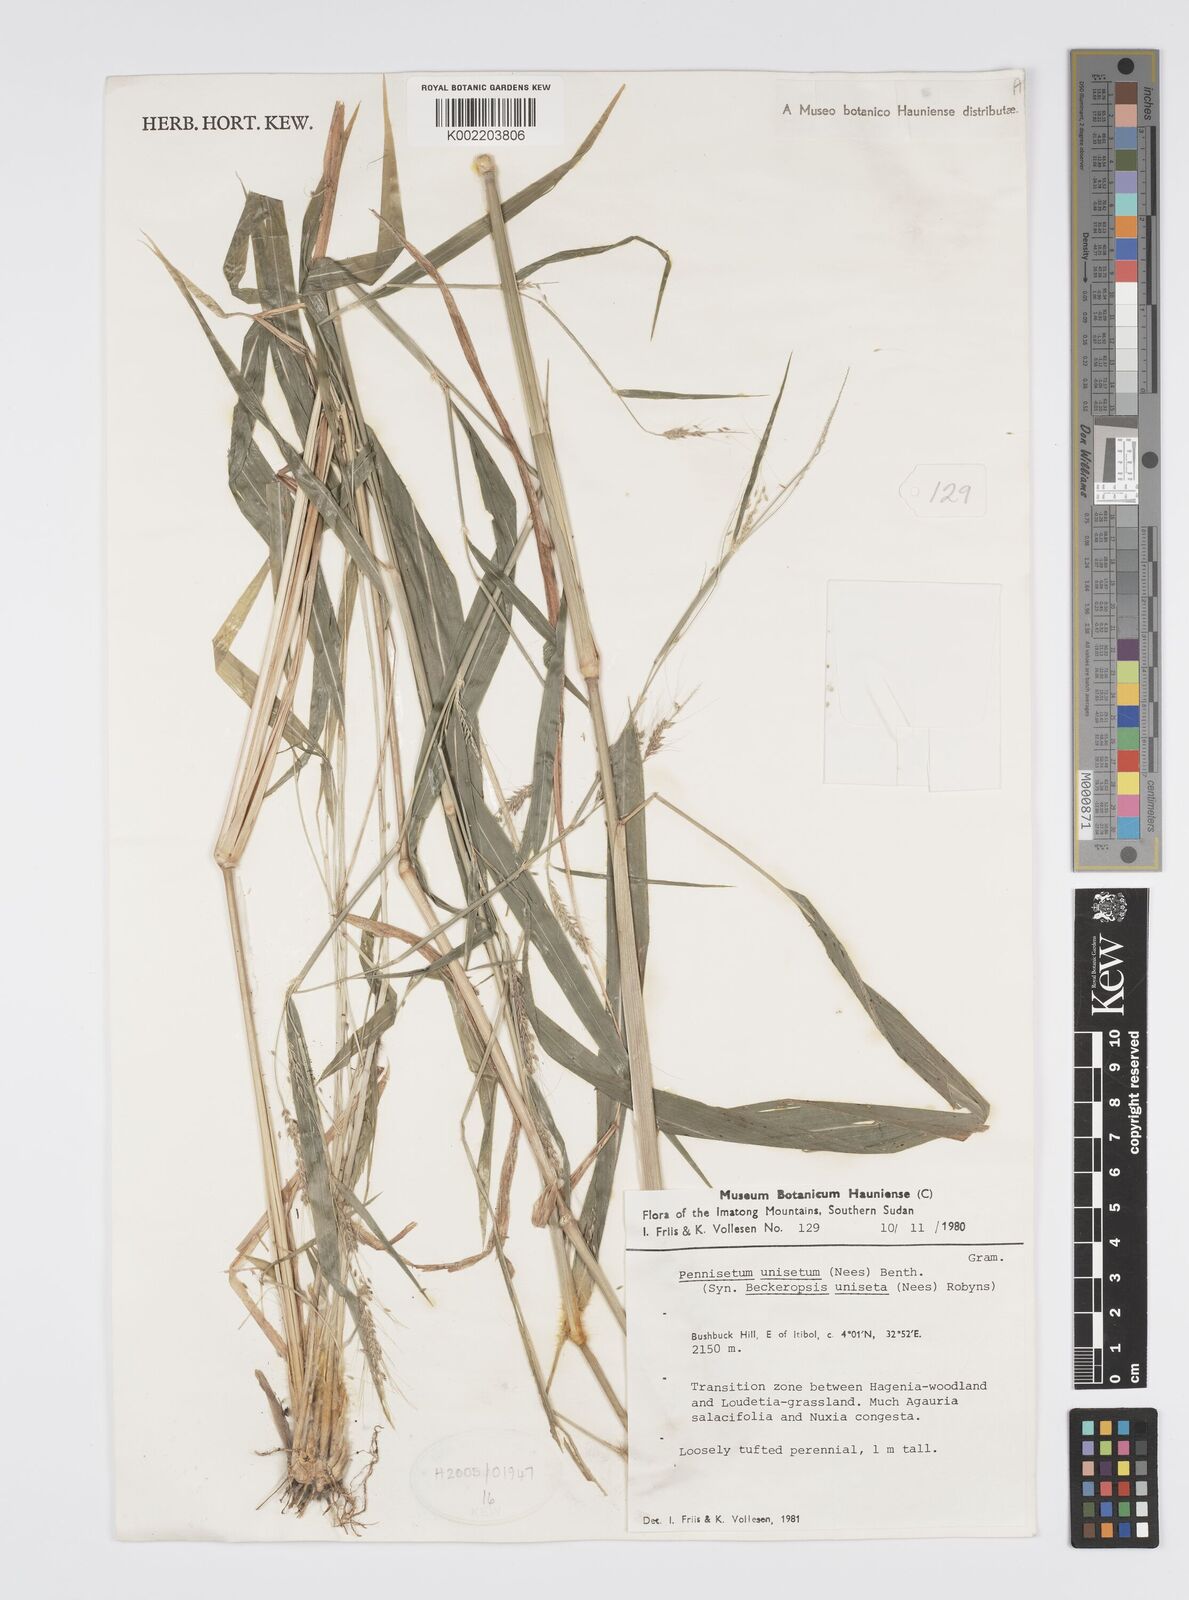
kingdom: Plantae
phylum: Tracheophyta
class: Liliopsida
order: Poales
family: Poaceae
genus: Cenchrus
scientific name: Cenchrus unisetus
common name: Natal grass
